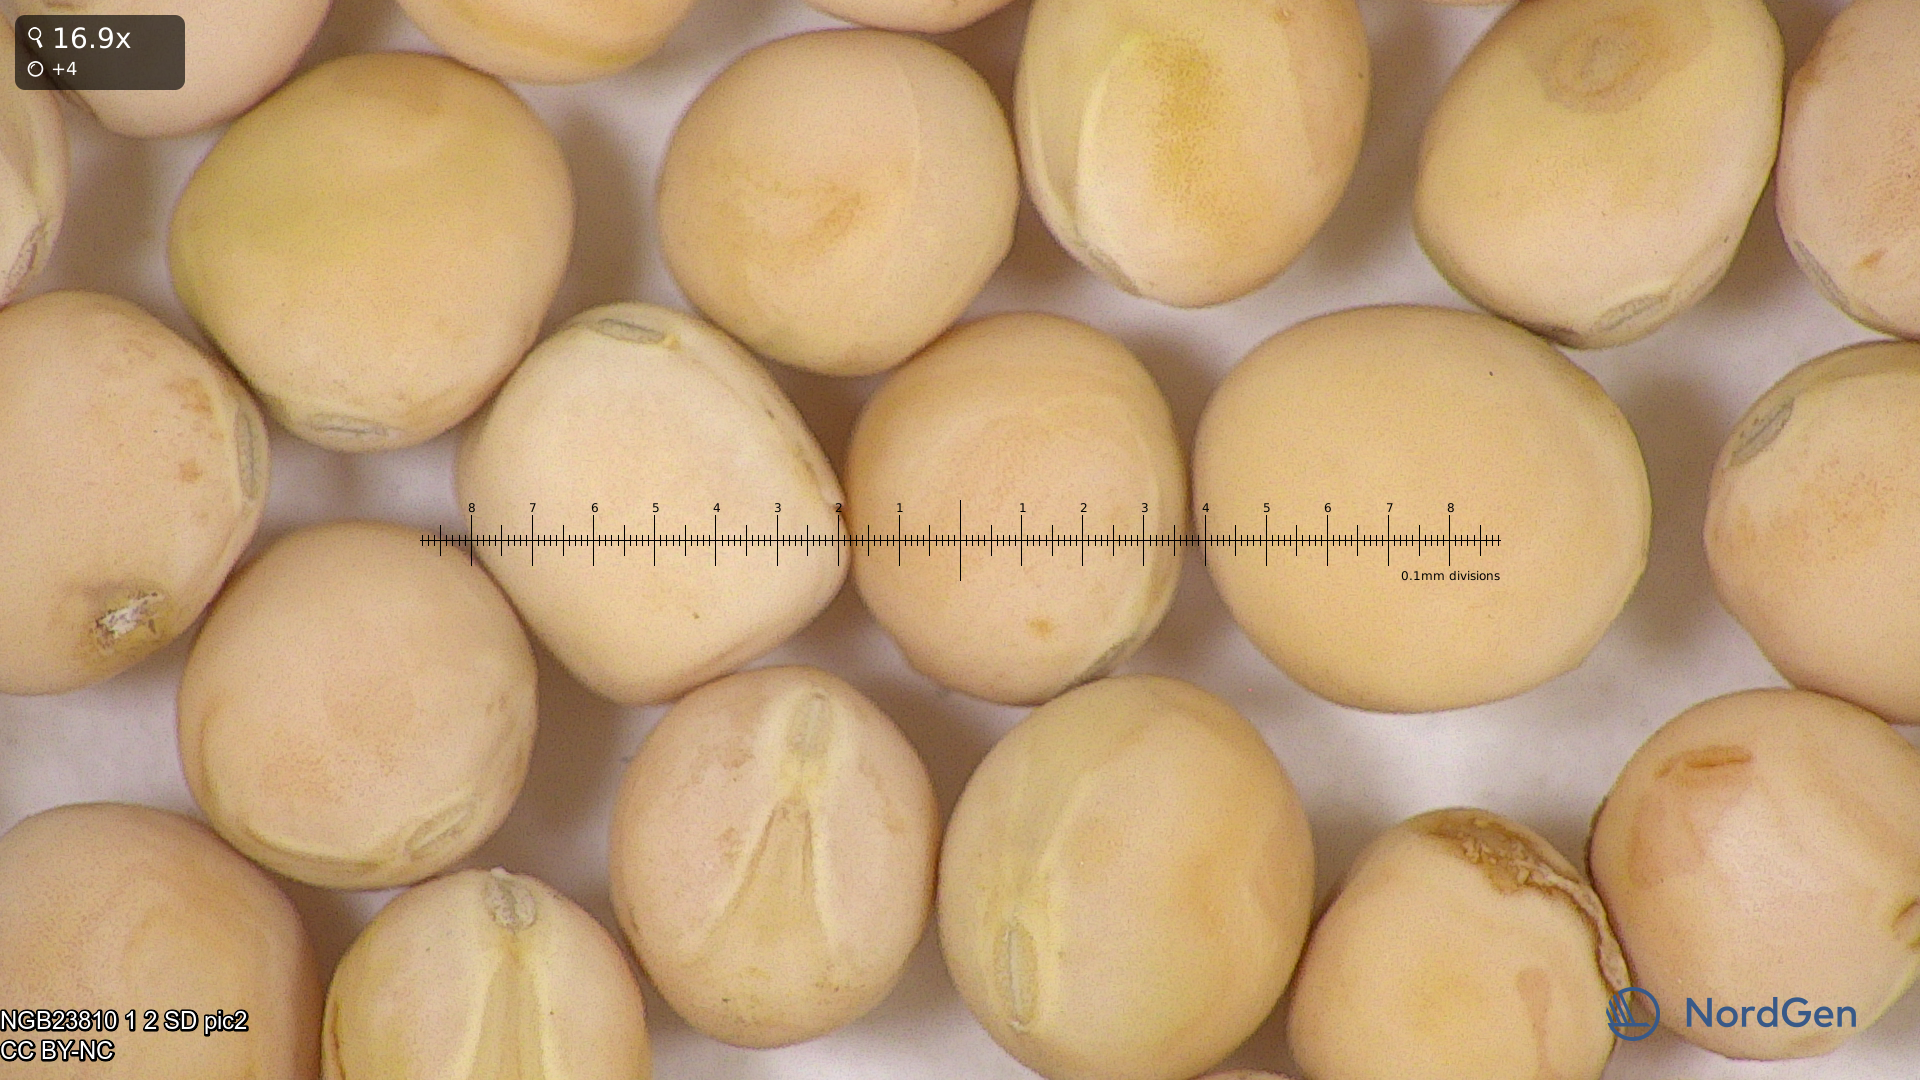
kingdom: Plantae
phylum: Tracheophyta
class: Magnoliopsida
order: Fabales
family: Fabaceae
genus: Lathyrus
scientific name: Lathyrus oleraceus
